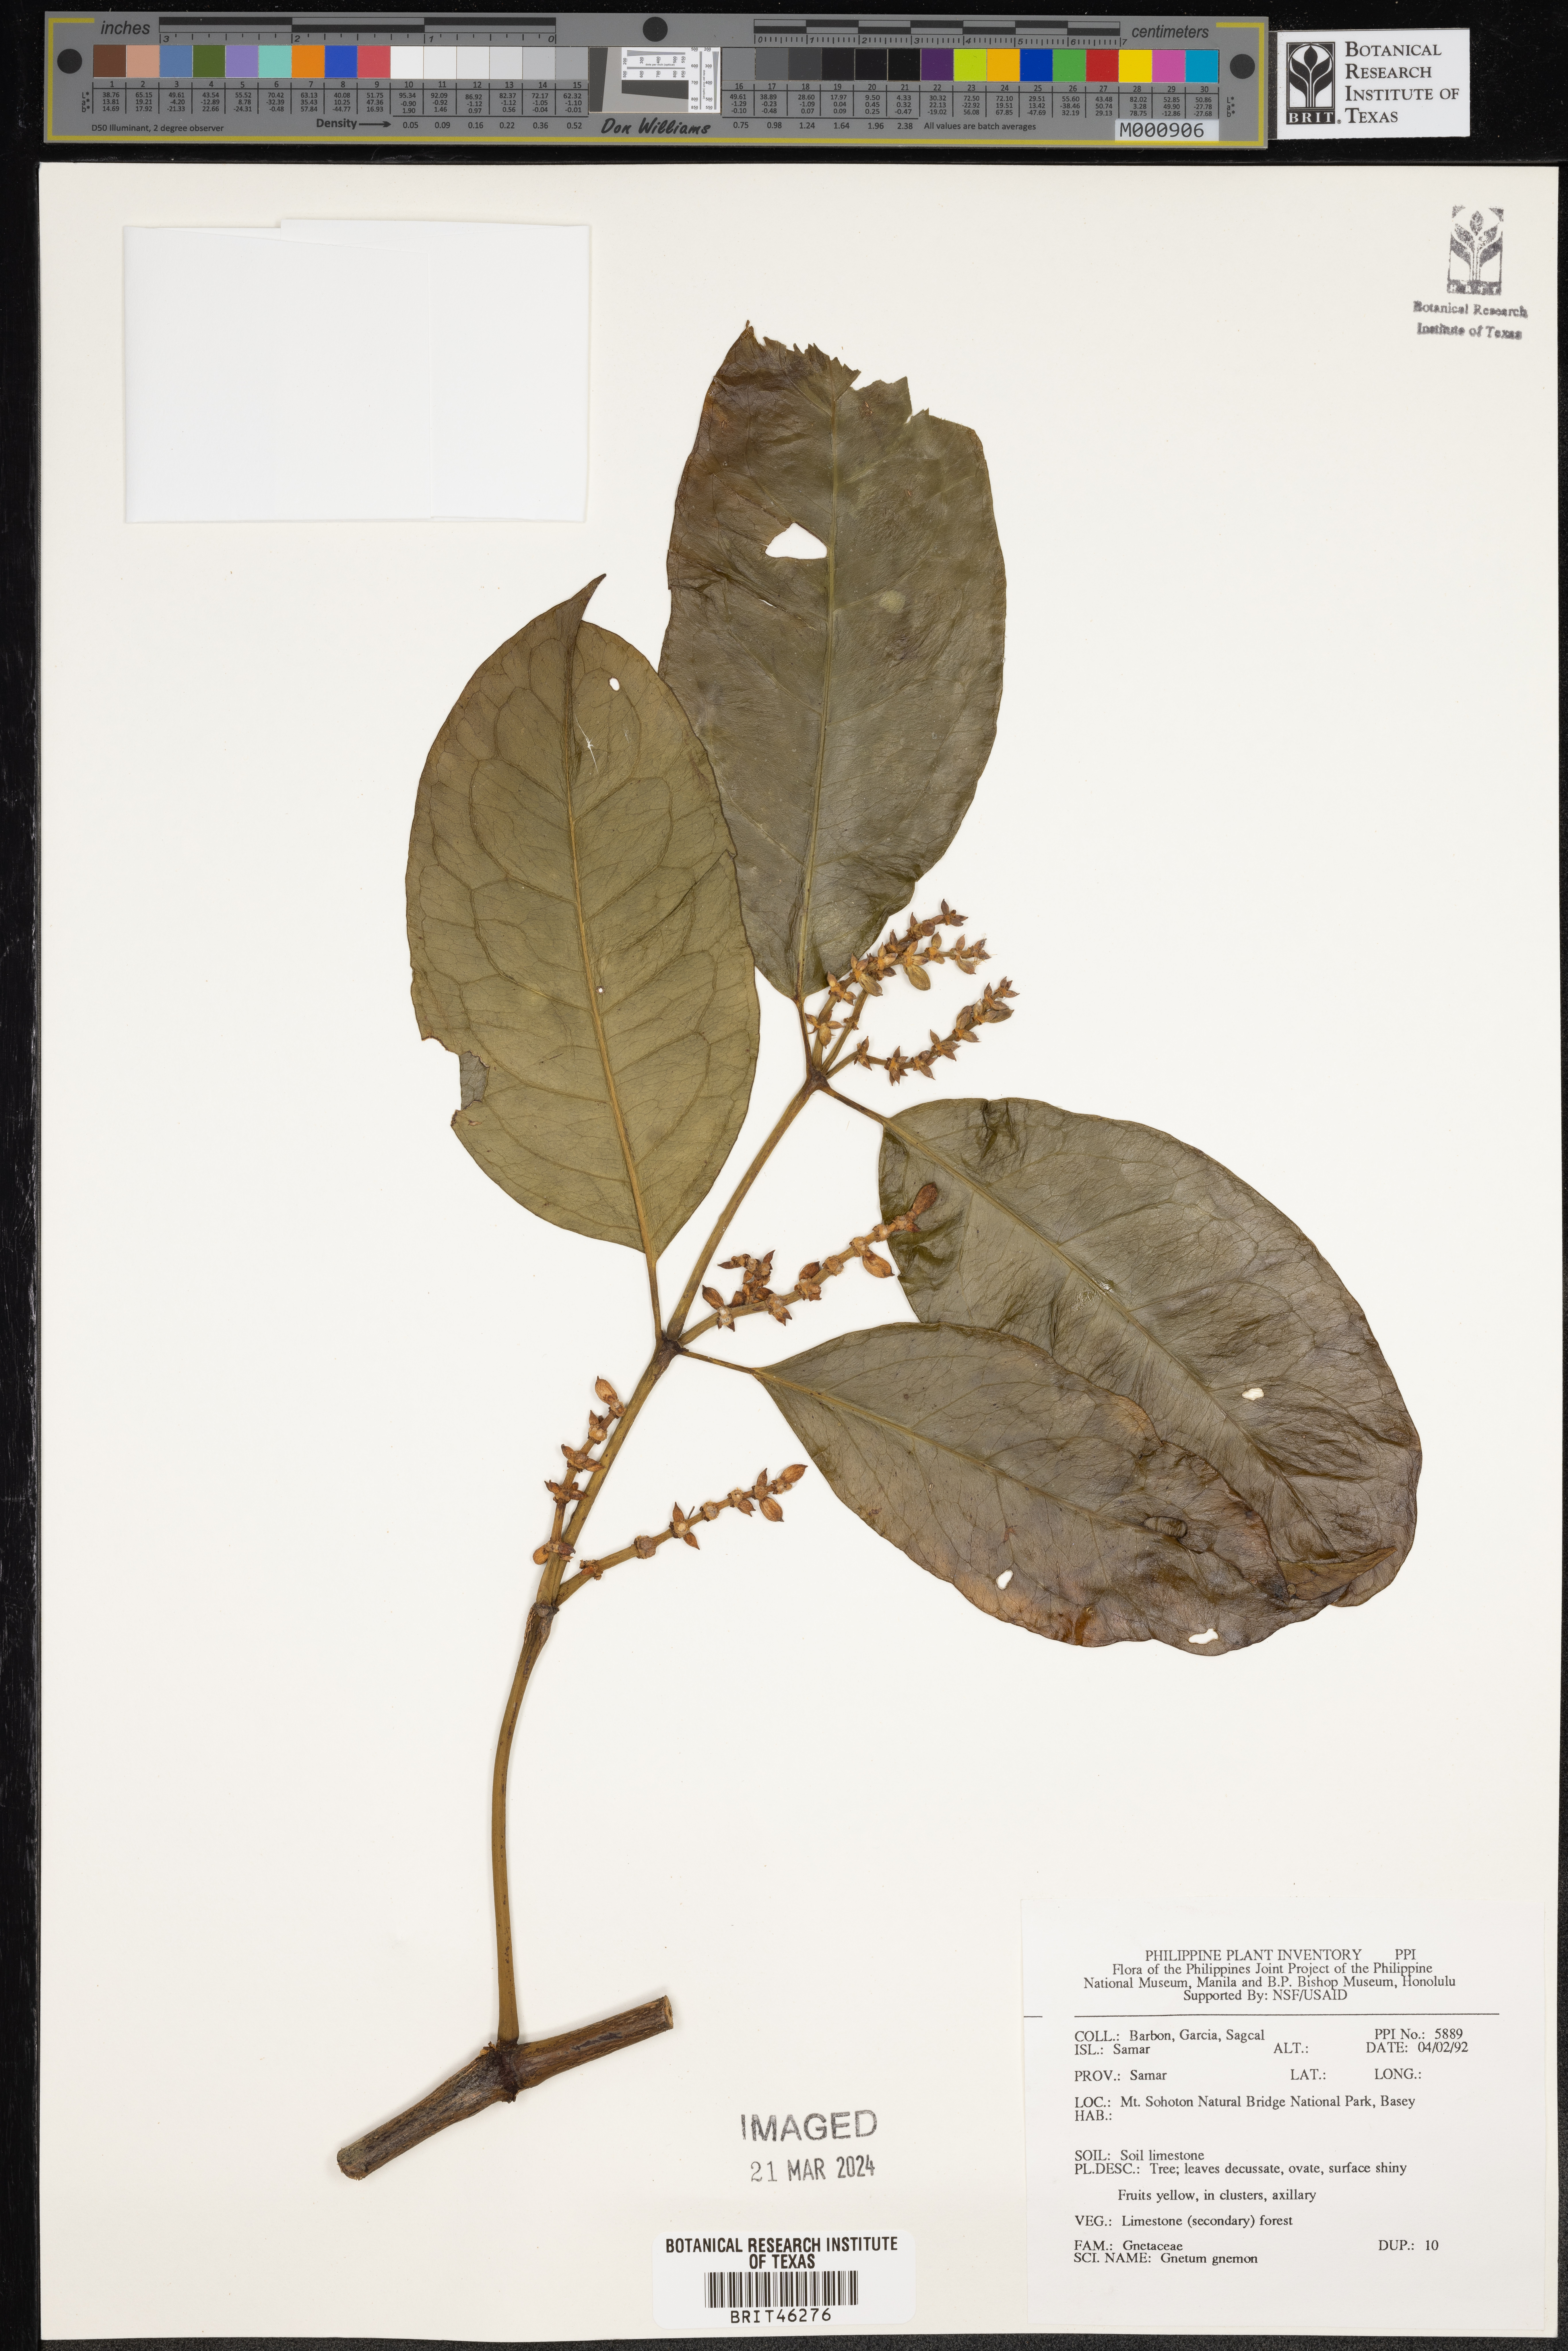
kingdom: Plantae
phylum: Tracheophyta
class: Gnetopsida
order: Gnetales
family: Gnetaceae
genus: Gnetum
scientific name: Gnetum gnemon
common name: Spanish joint-fir
